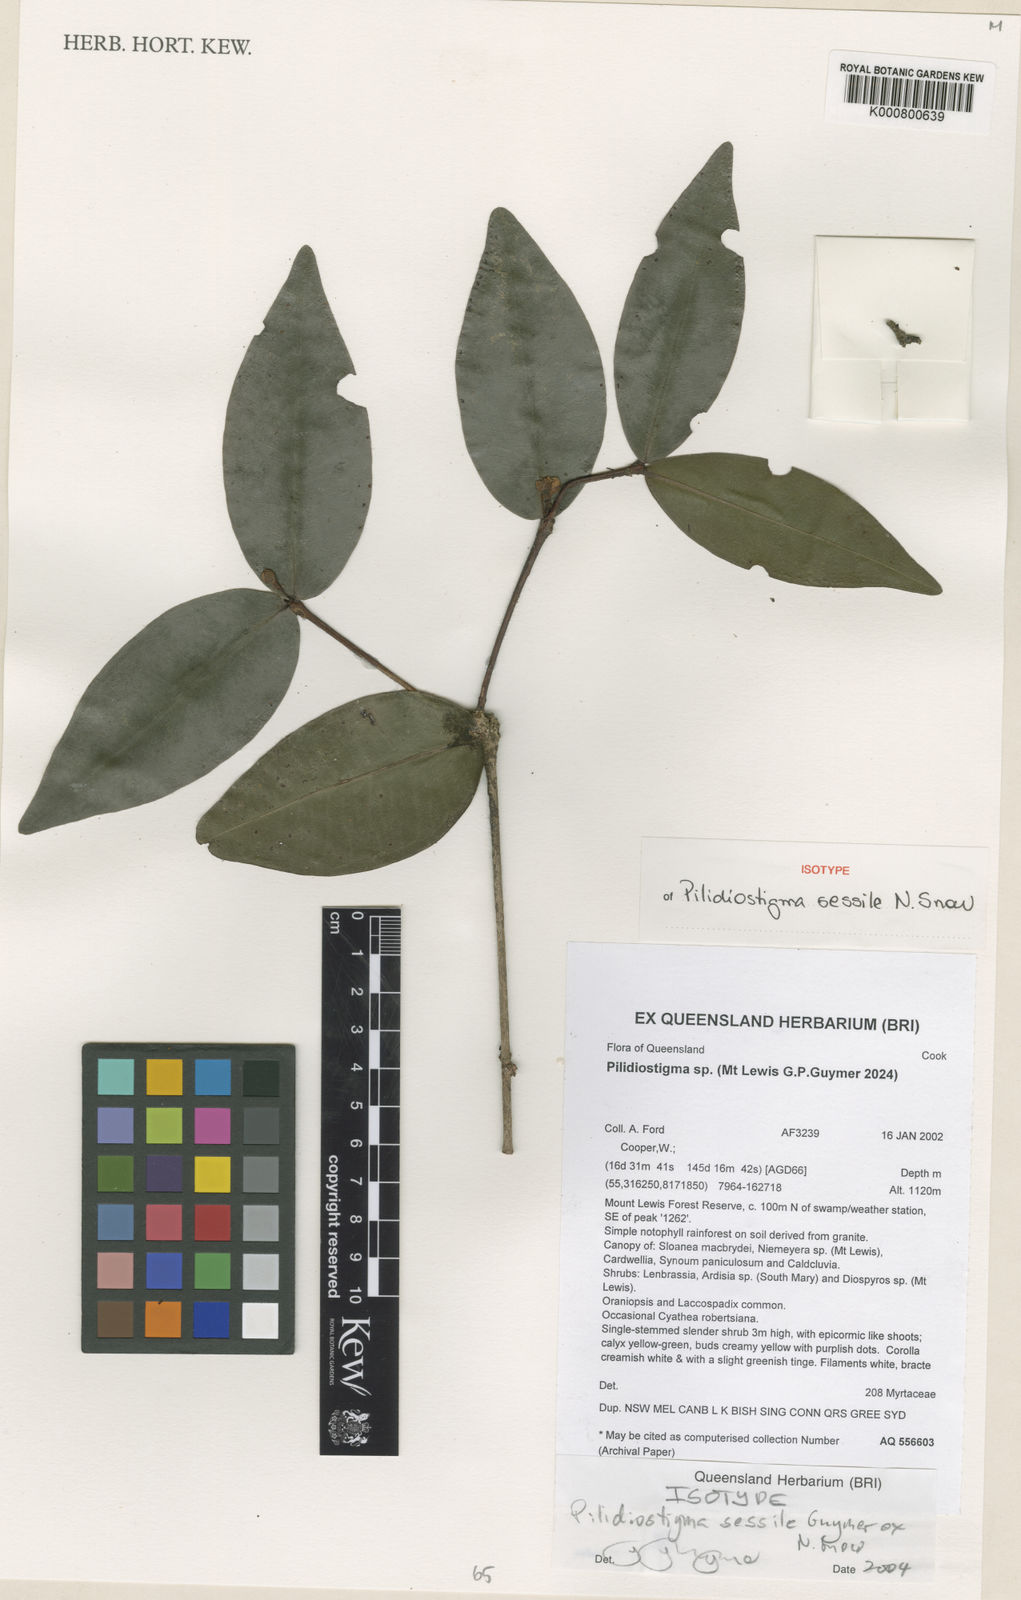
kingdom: Plantae
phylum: Tracheophyta
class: Magnoliopsida
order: Myrtales
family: Myrtaceae
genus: Pilidiostigma
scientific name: Pilidiostigma sessile
